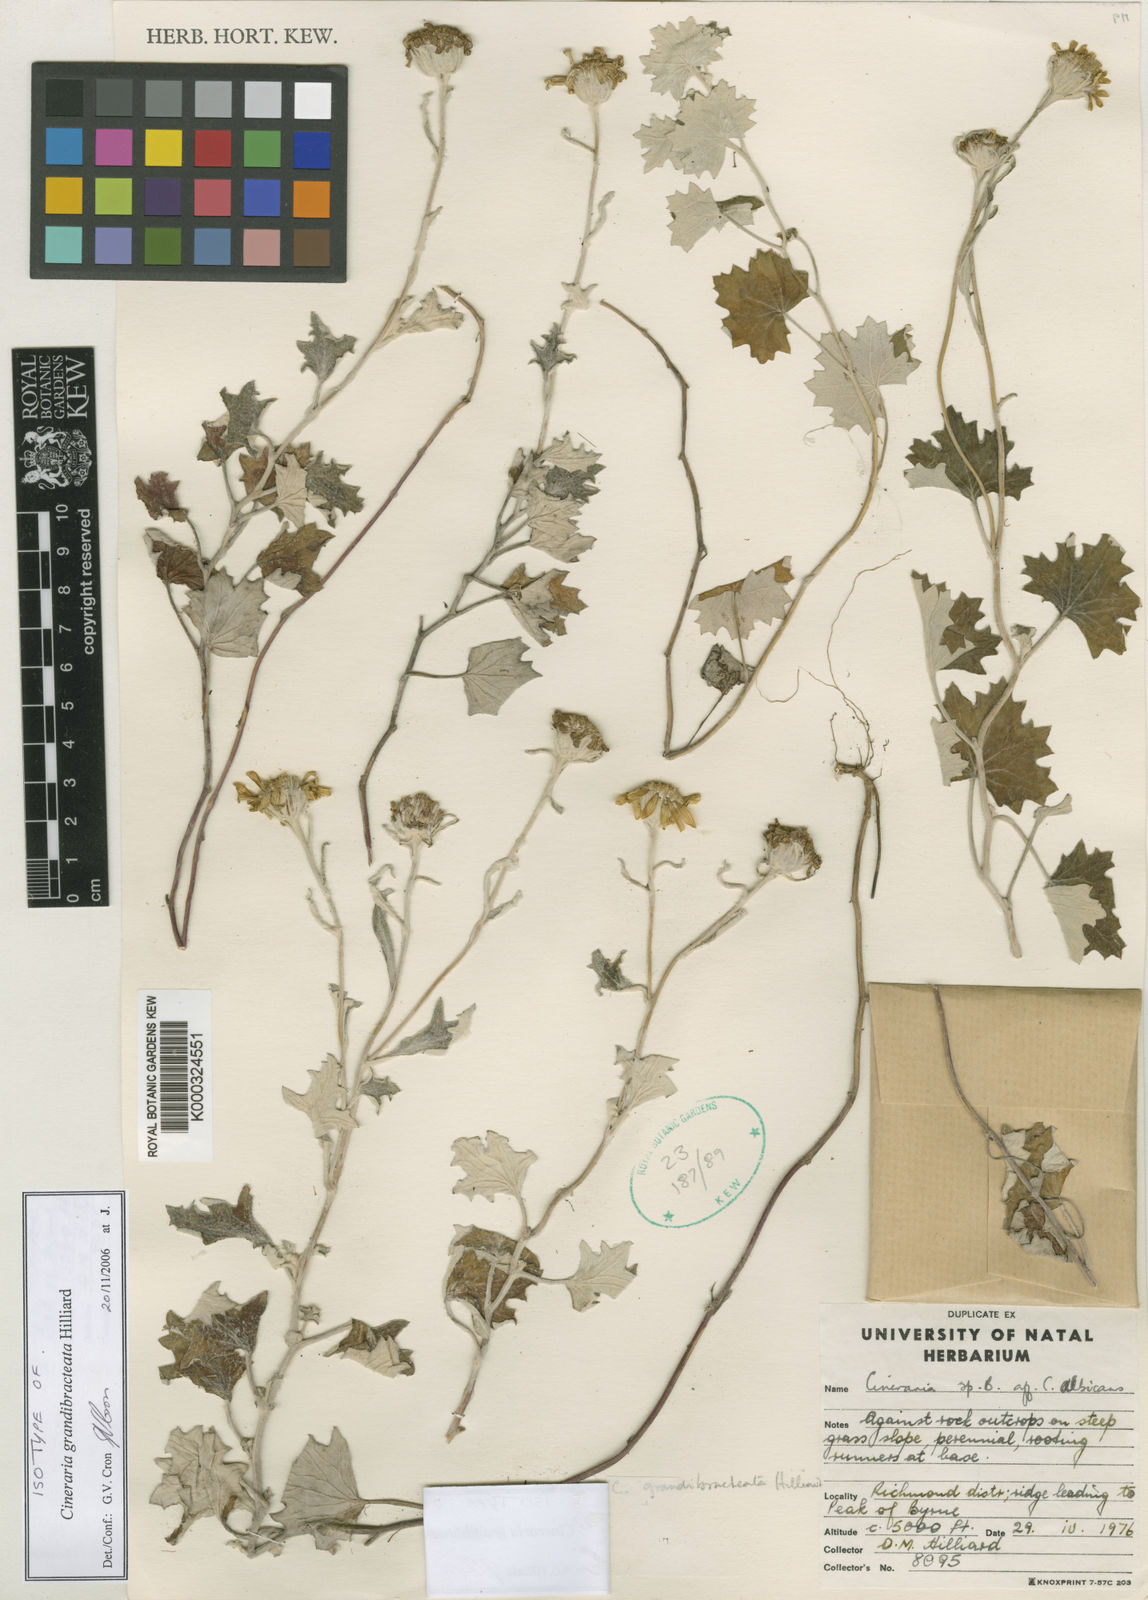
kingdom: Plantae
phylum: Tracheophyta
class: Magnoliopsida
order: Asterales
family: Asteraceae
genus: Cineraria
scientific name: Cineraria grandibracteata
